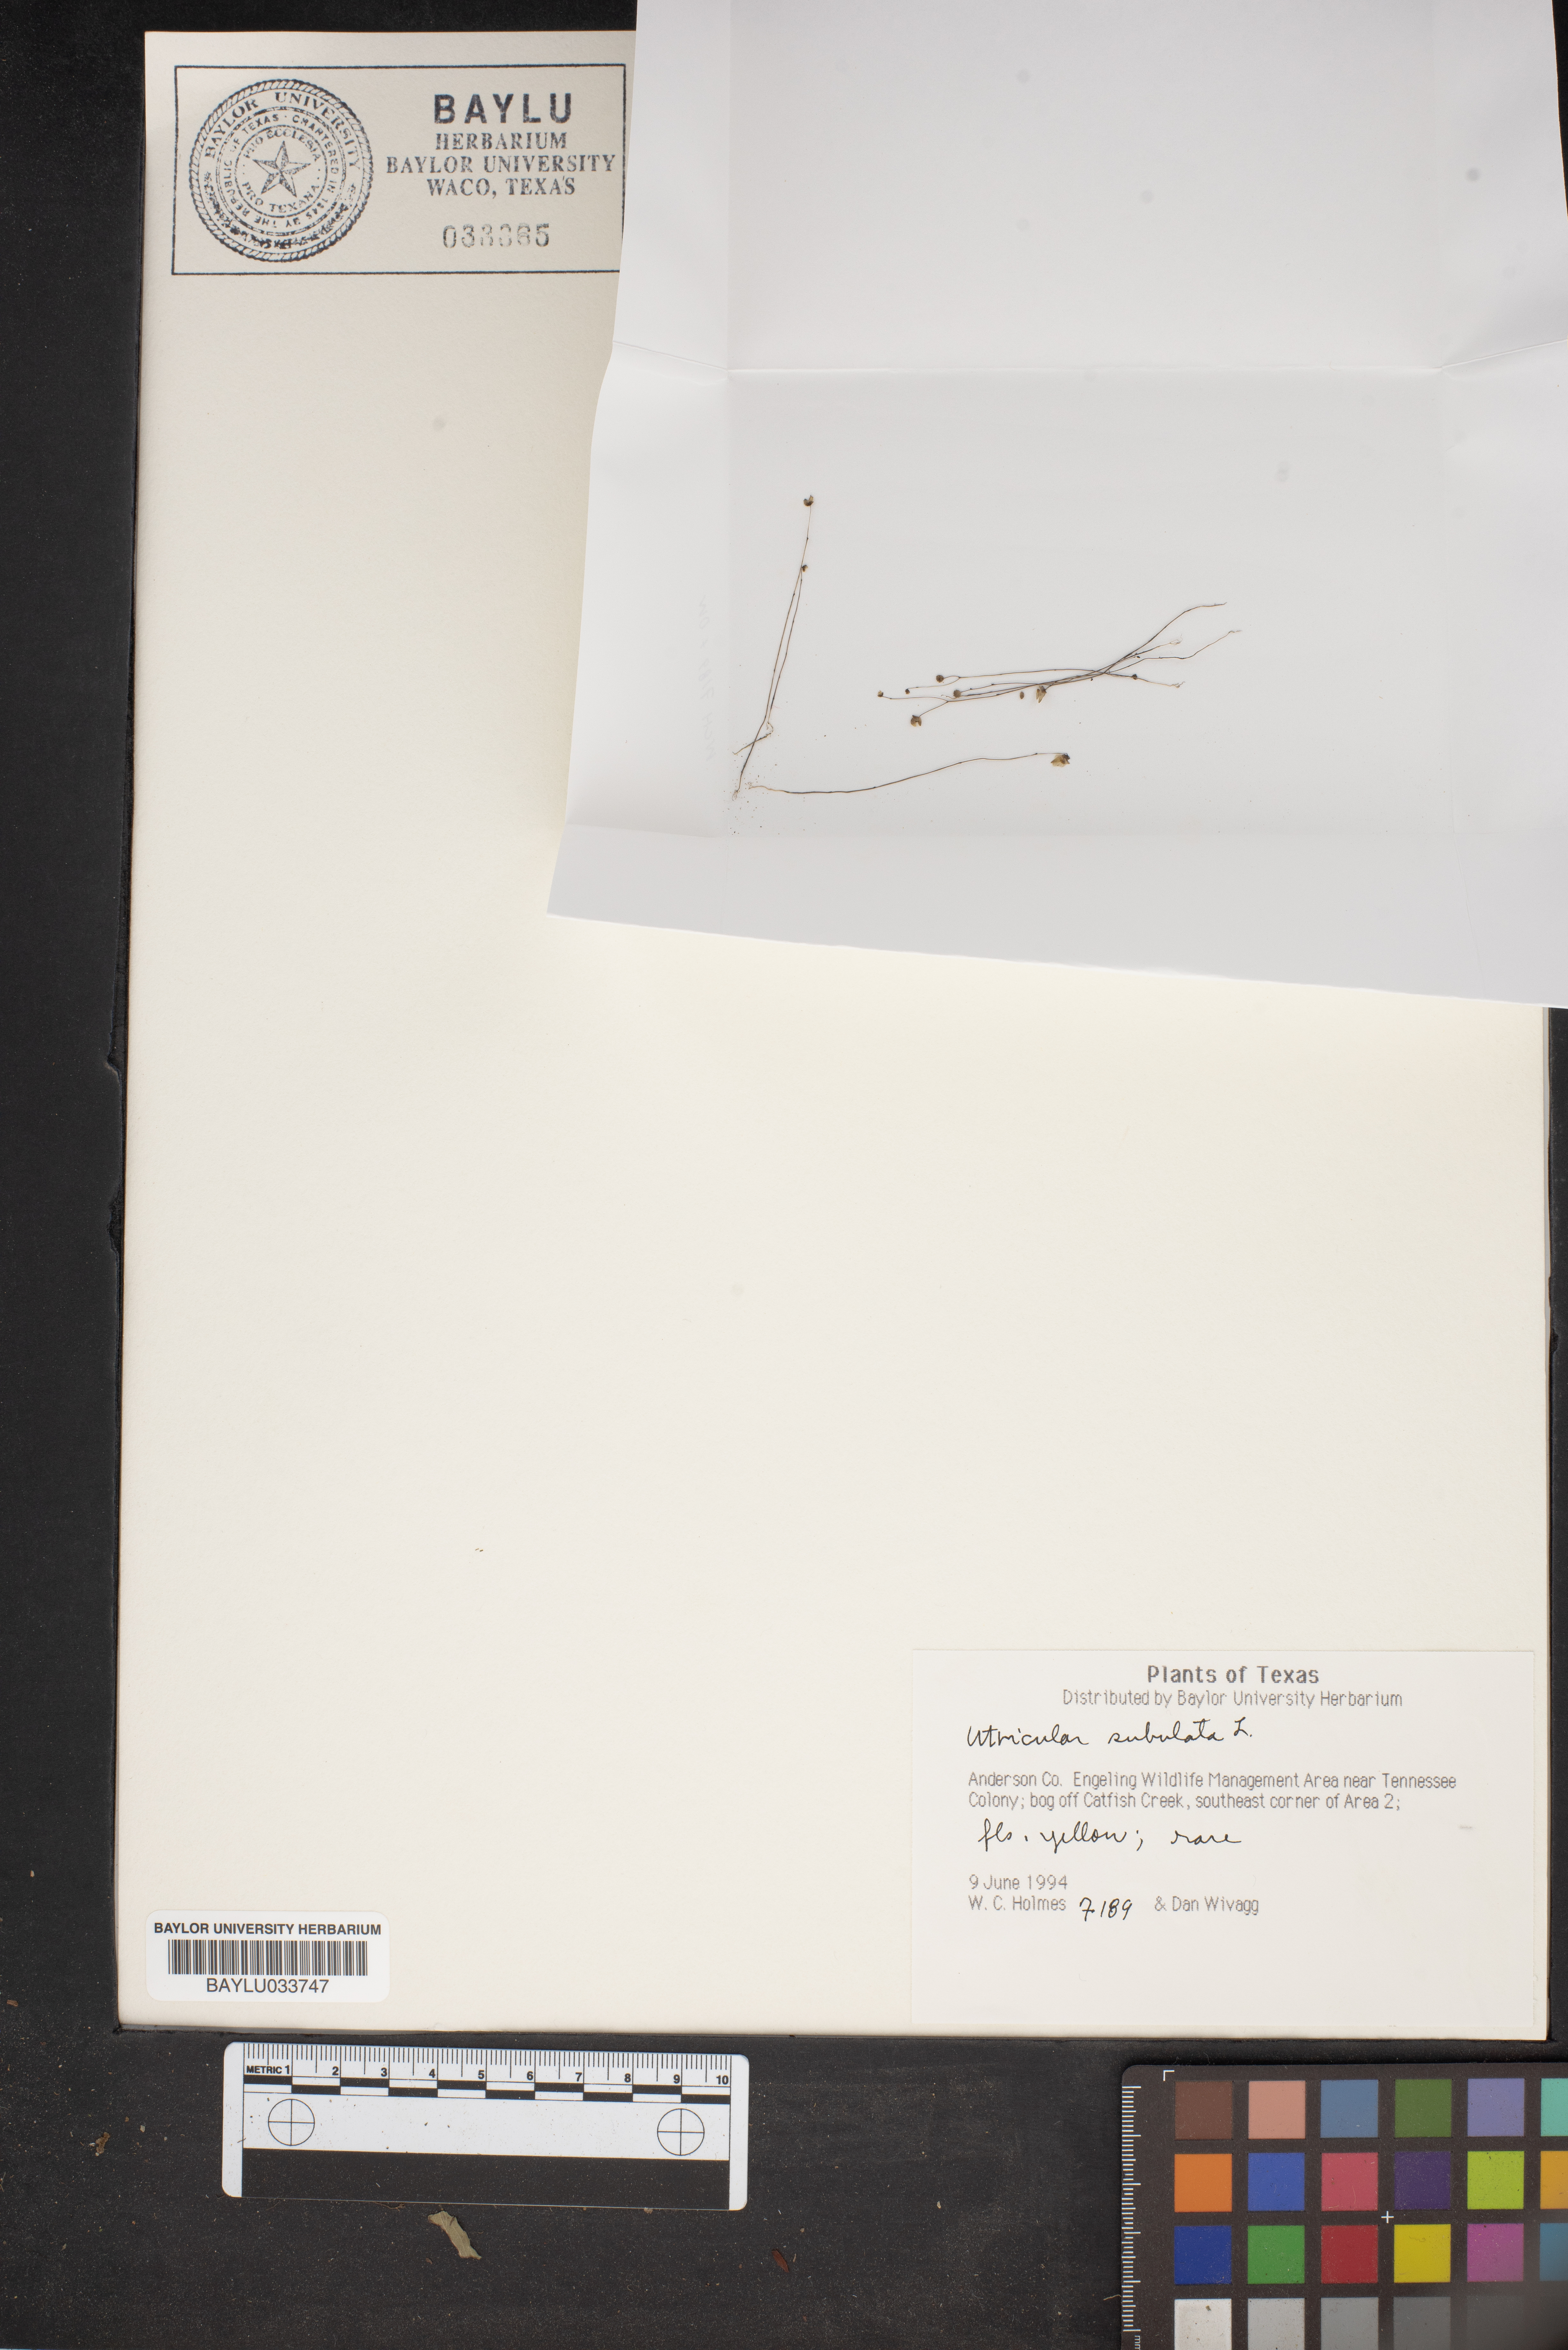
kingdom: Plantae
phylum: Tracheophyta
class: Magnoliopsida
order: Lamiales
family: Lentibulariaceae
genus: Utricularia
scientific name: Utricularia subulata
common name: Tiny bladderwort
